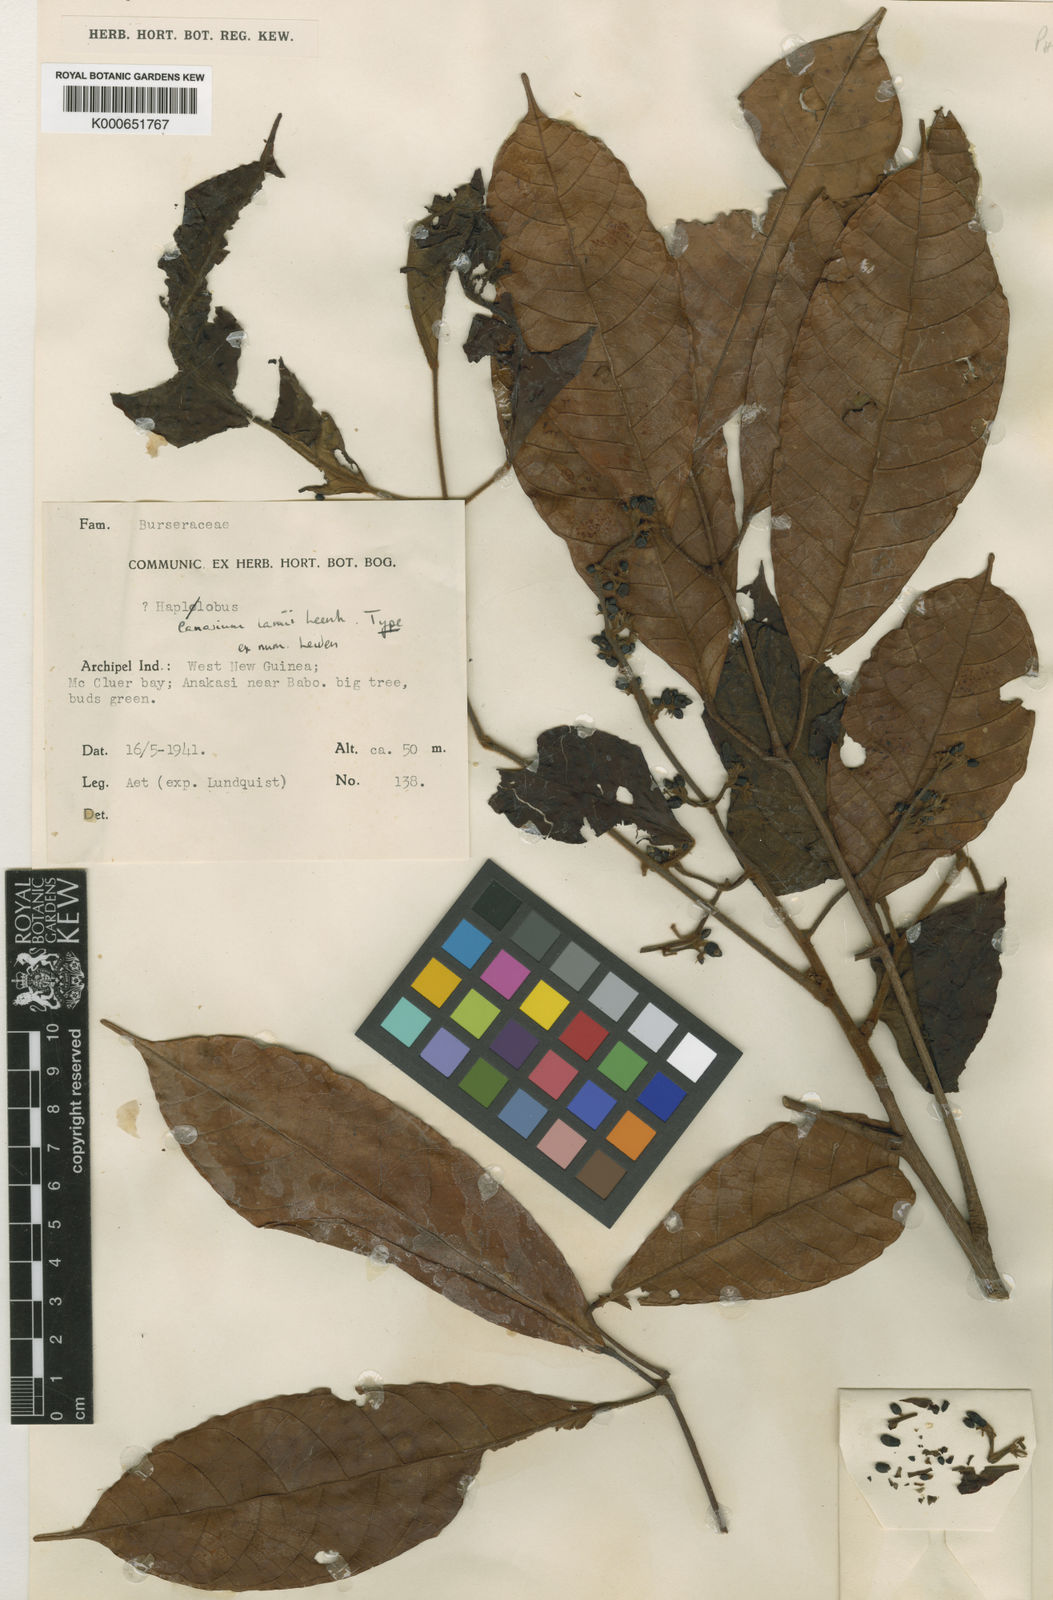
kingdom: Plantae
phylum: Tracheophyta
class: Magnoliopsida
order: Sapindales
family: Burseraceae
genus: Canarium
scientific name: Canarium lamii
